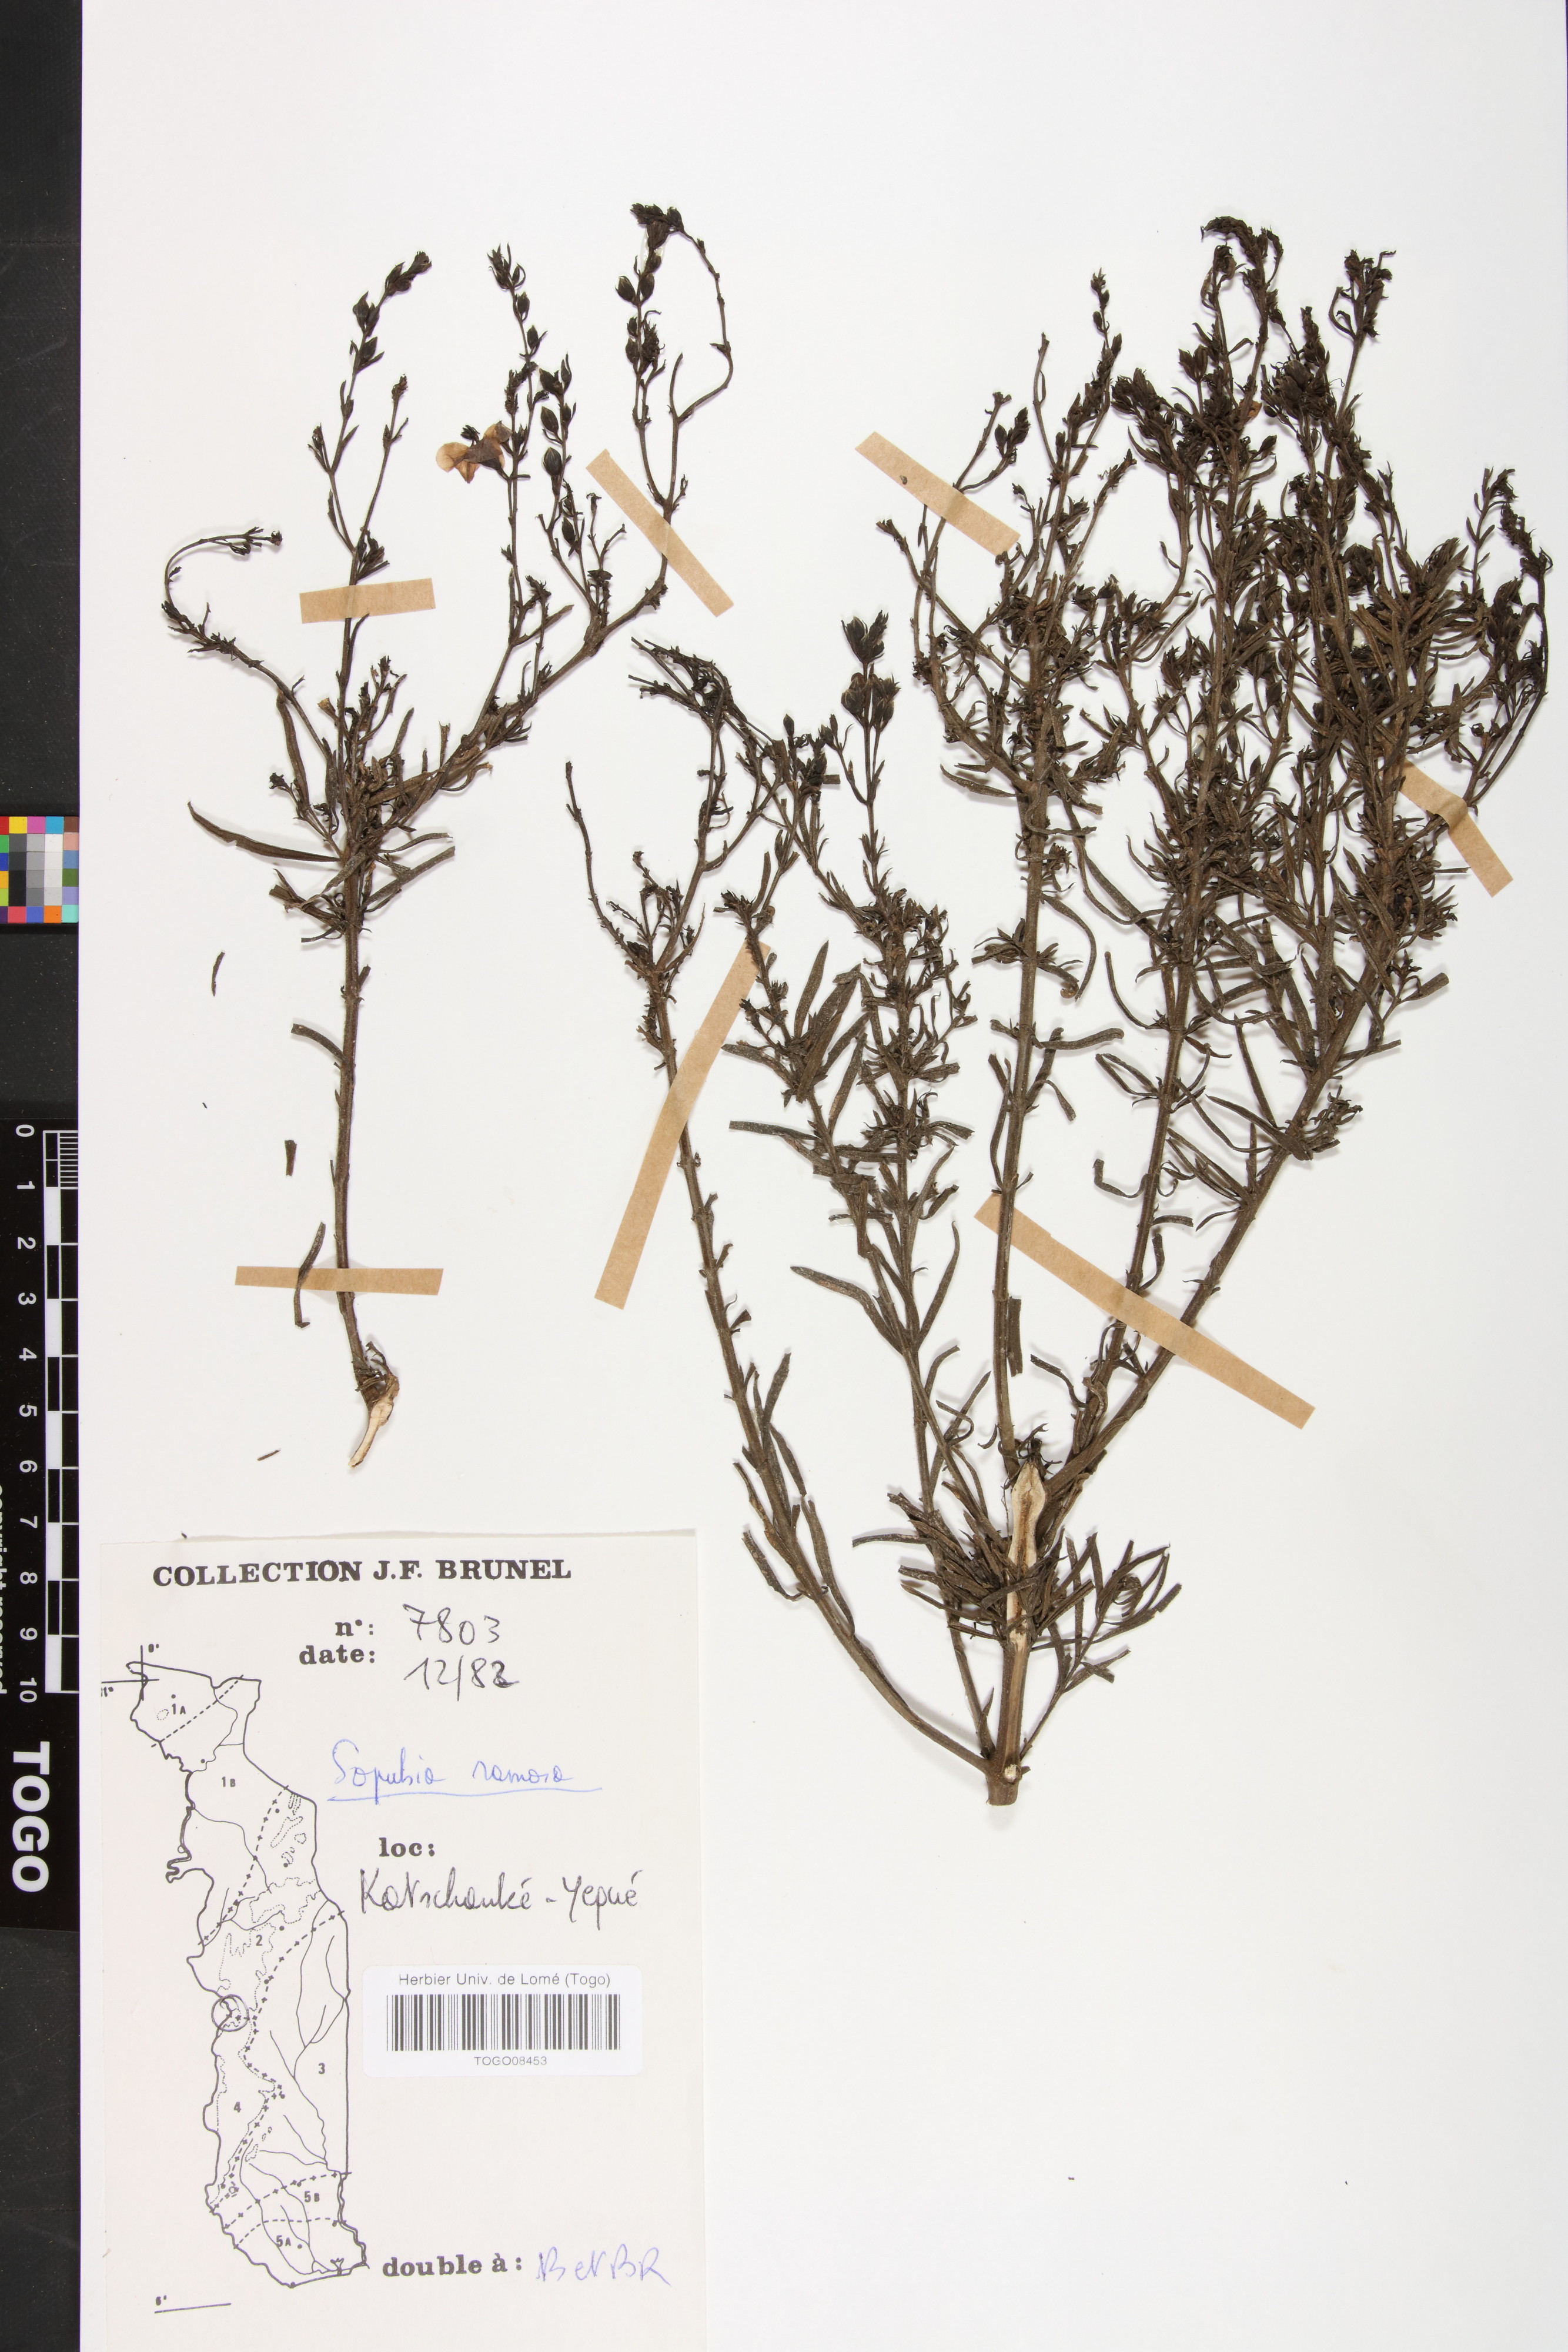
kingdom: Plantae
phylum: Tracheophyta
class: Magnoliopsida
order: Lamiales
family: Orobanchaceae
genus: Sopubia
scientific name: Sopubia ramosa
